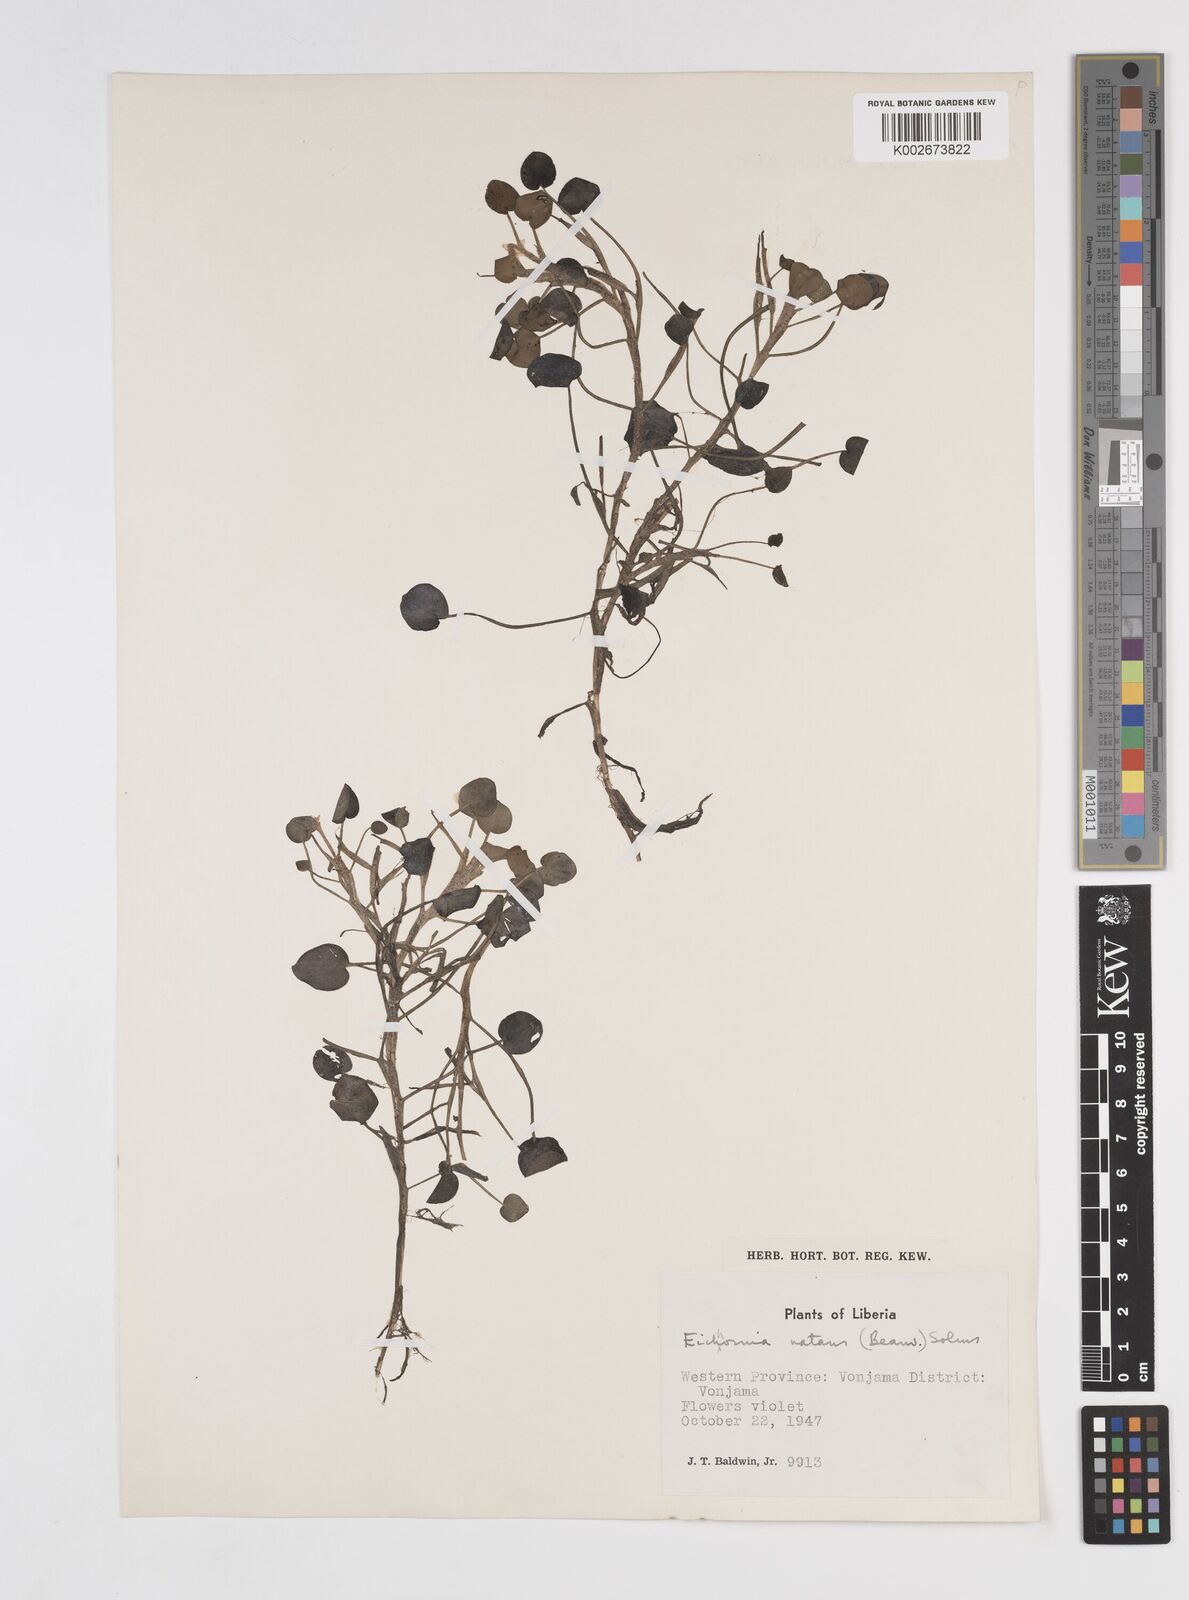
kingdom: Plantae
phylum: Tracheophyta
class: Liliopsida
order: Commelinales
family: Pontederiaceae
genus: Pontederia
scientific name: Pontederia diversifolia
